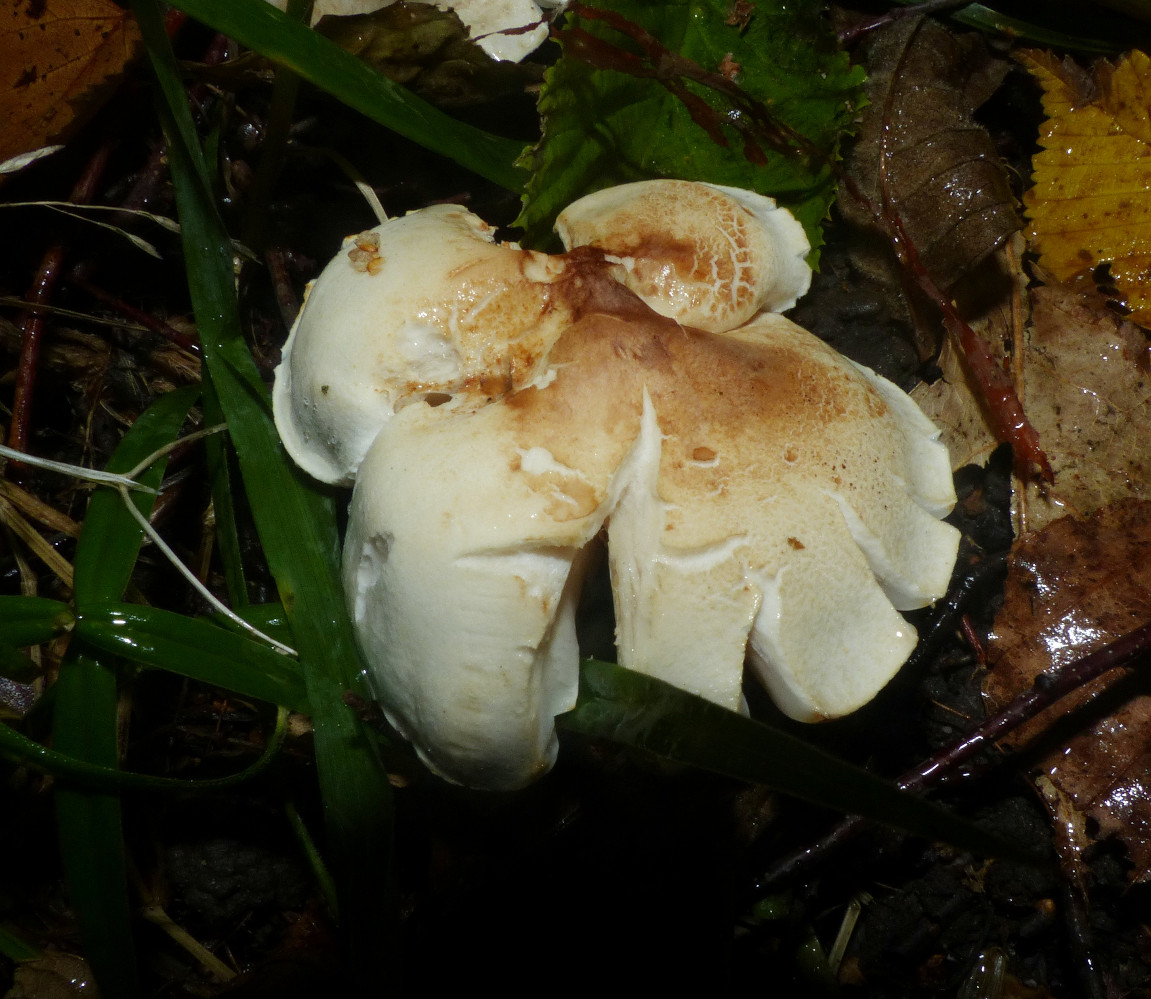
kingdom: Fungi
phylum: Basidiomycota
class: Agaricomycetes
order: Agaricales
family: Tricholomataceae
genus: Tricholoma
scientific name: Tricholoma stiparophyllum
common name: hvid ridderhat
